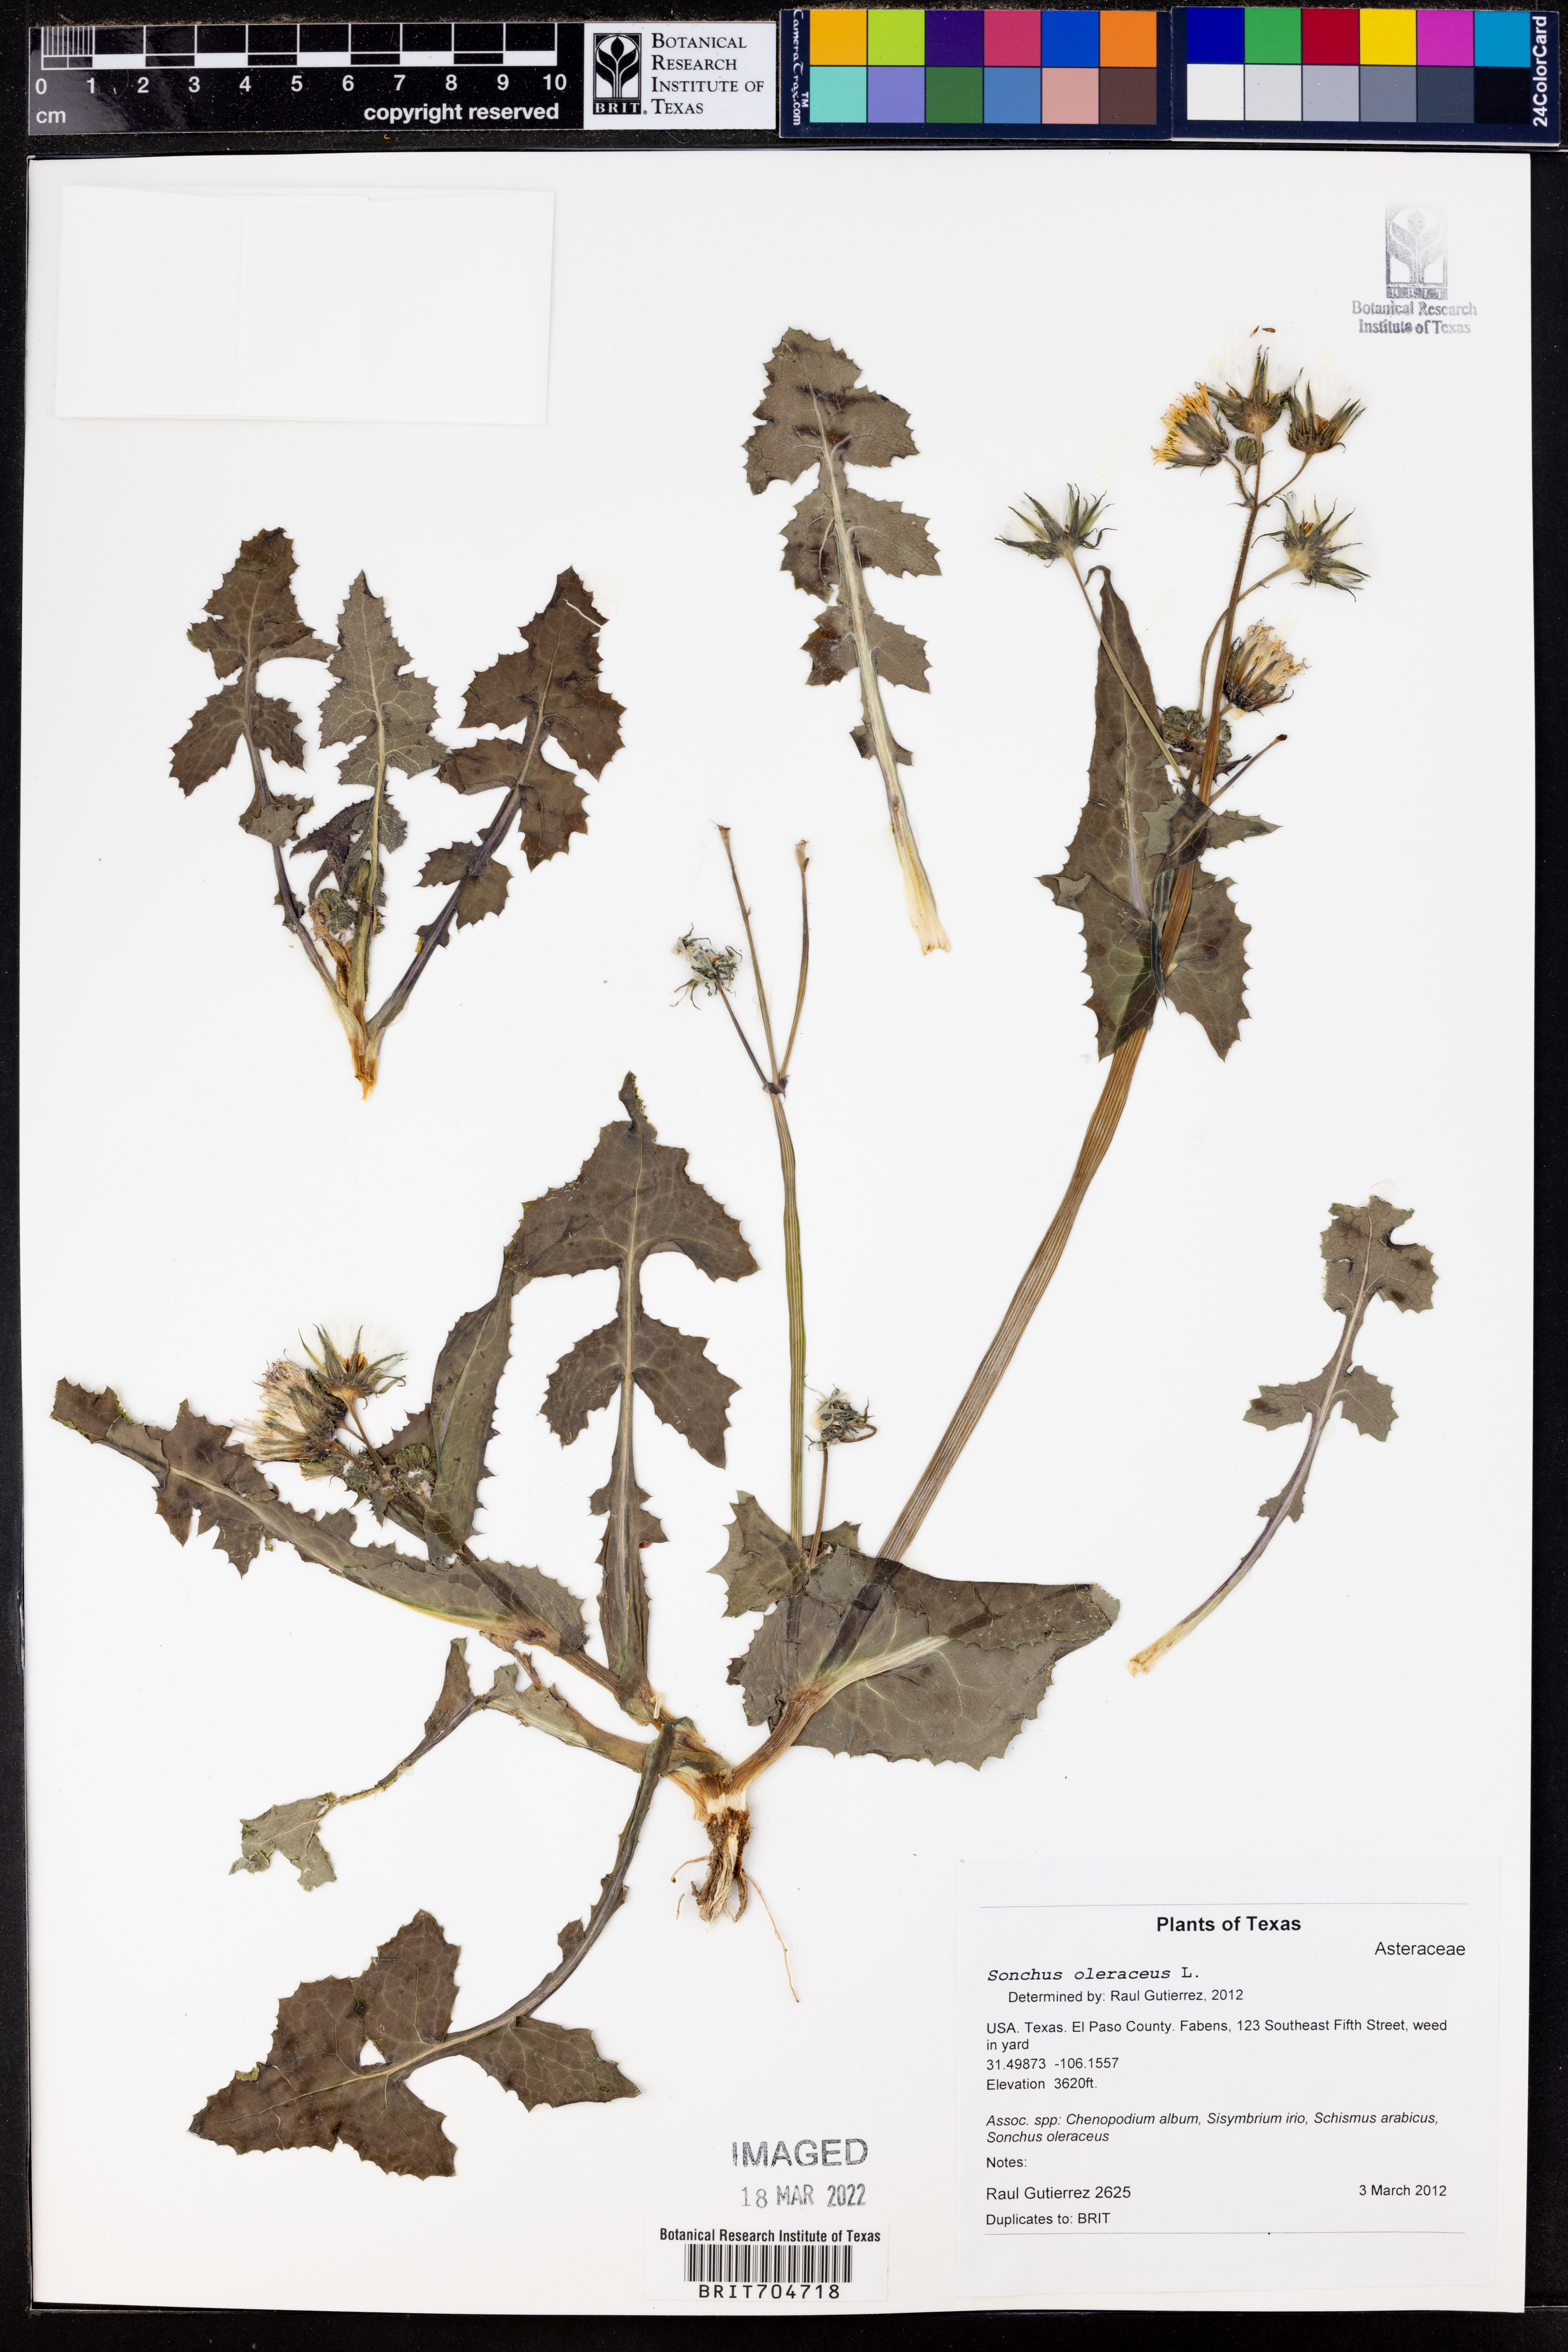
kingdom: Plantae
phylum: Tracheophyta
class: Magnoliopsida
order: Asterales
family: Asteraceae
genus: Sonchus
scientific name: Sonchus oleraceus
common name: Common sowthistle
